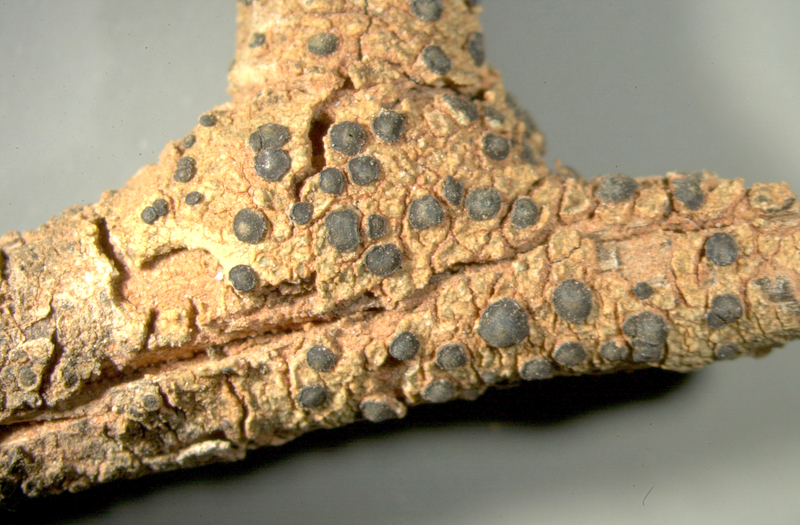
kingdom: Fungi
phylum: Ascomycota
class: Lecanoromycetes
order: Teloschistales
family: Teloschistaceae
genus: Xanthoria
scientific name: Xanthoria
